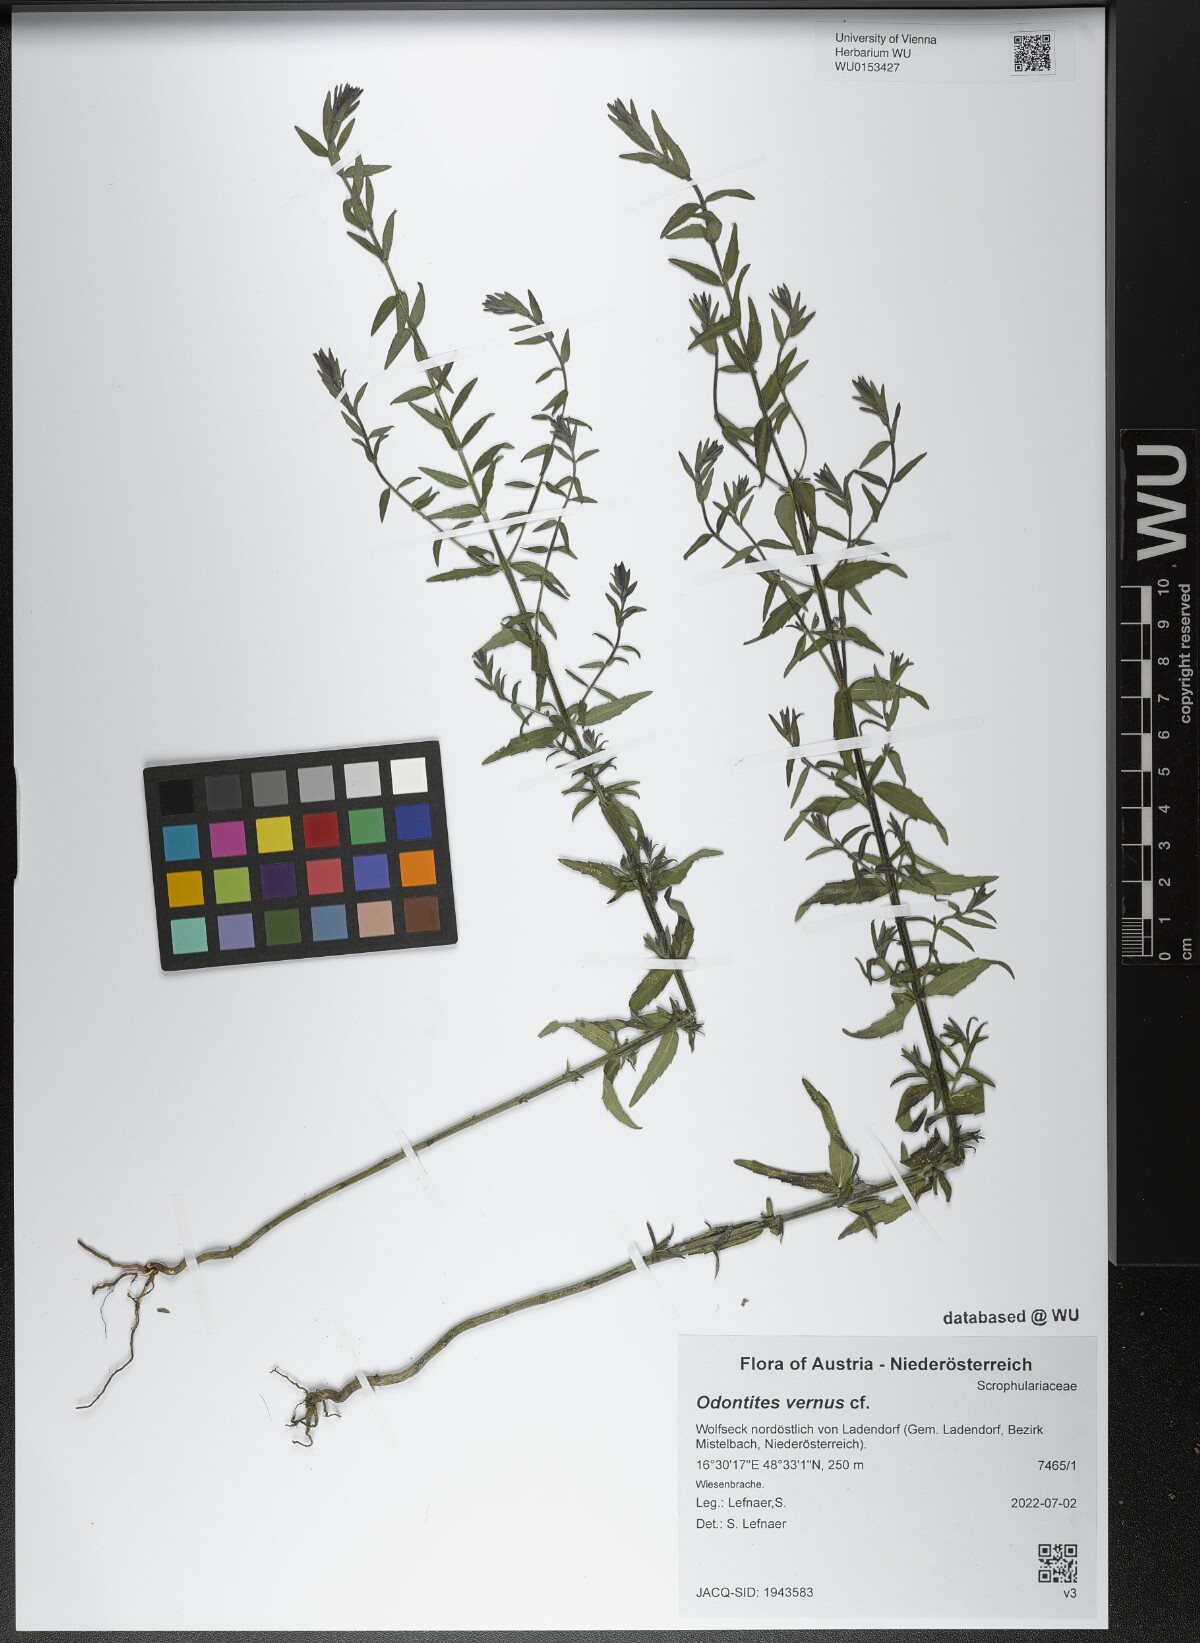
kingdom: Plantae
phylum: Tracheophyta
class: Magnoliopsida
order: Lamiales
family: Orobanchaceae
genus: Odontites
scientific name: Odontites vernus
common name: Red bartsia
